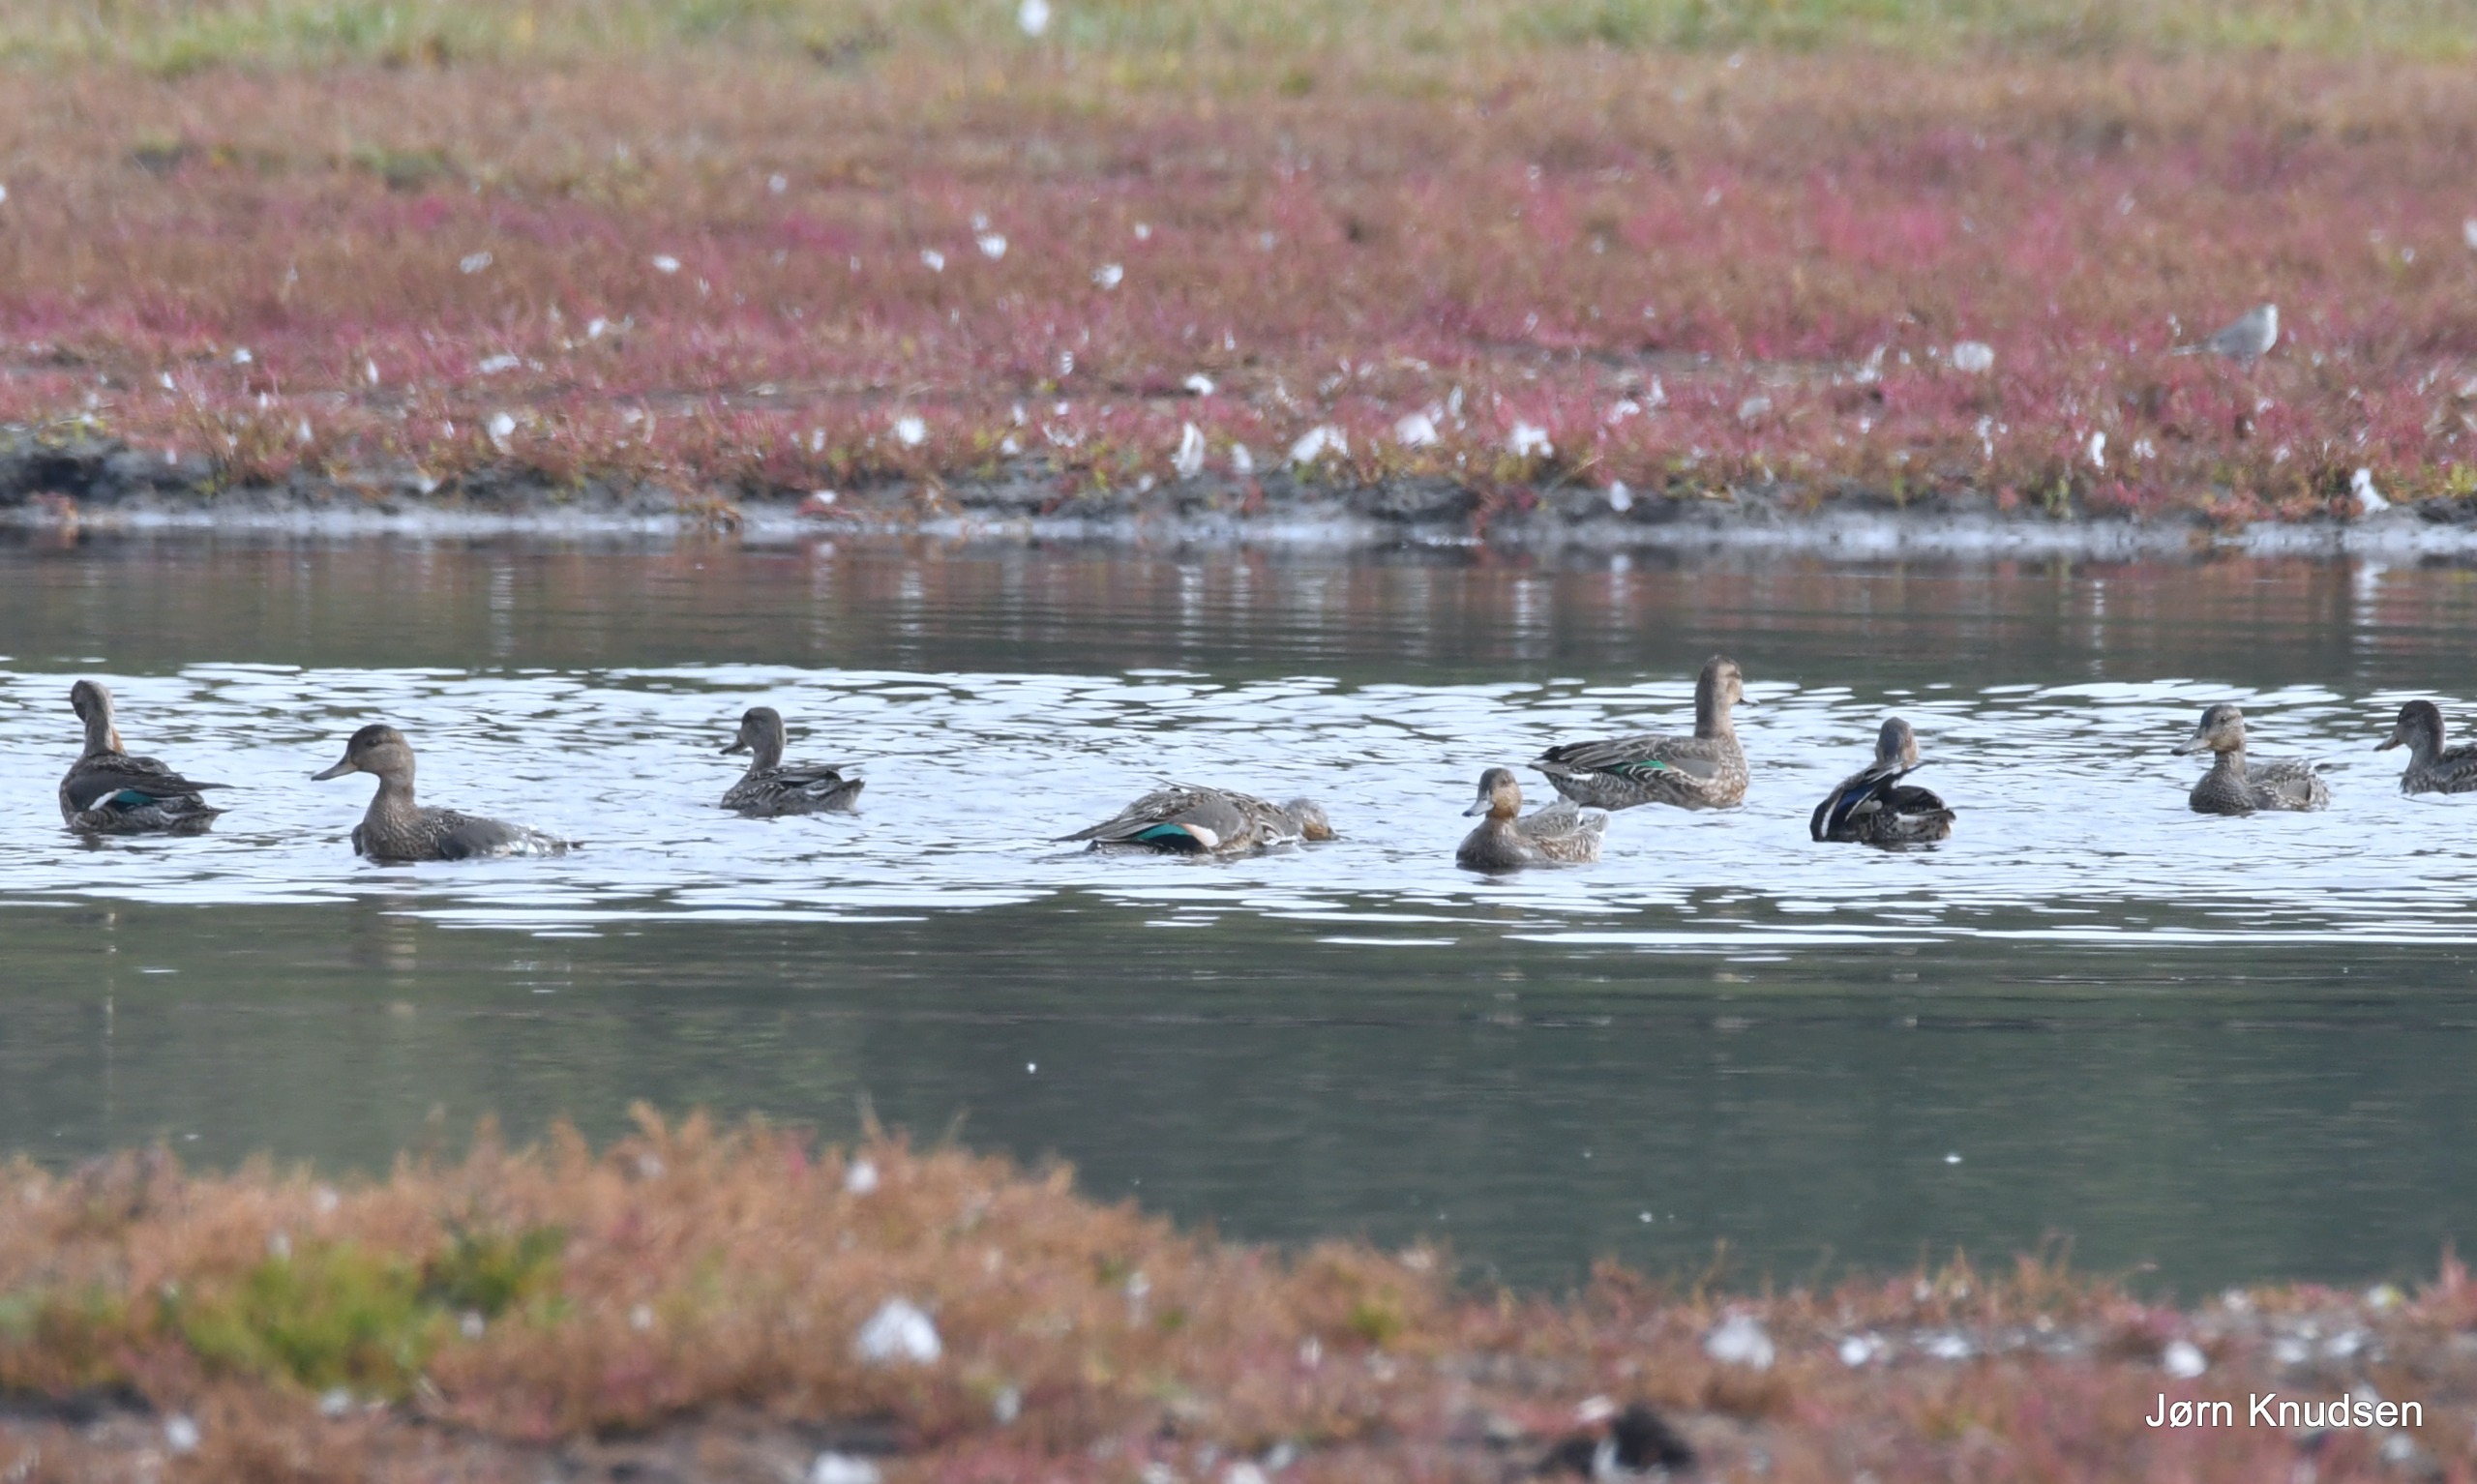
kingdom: Animalia
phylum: Chordata
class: Aves
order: Anseriformes
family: Anatidae
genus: Anas
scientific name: Anas crecca
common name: Krikand
